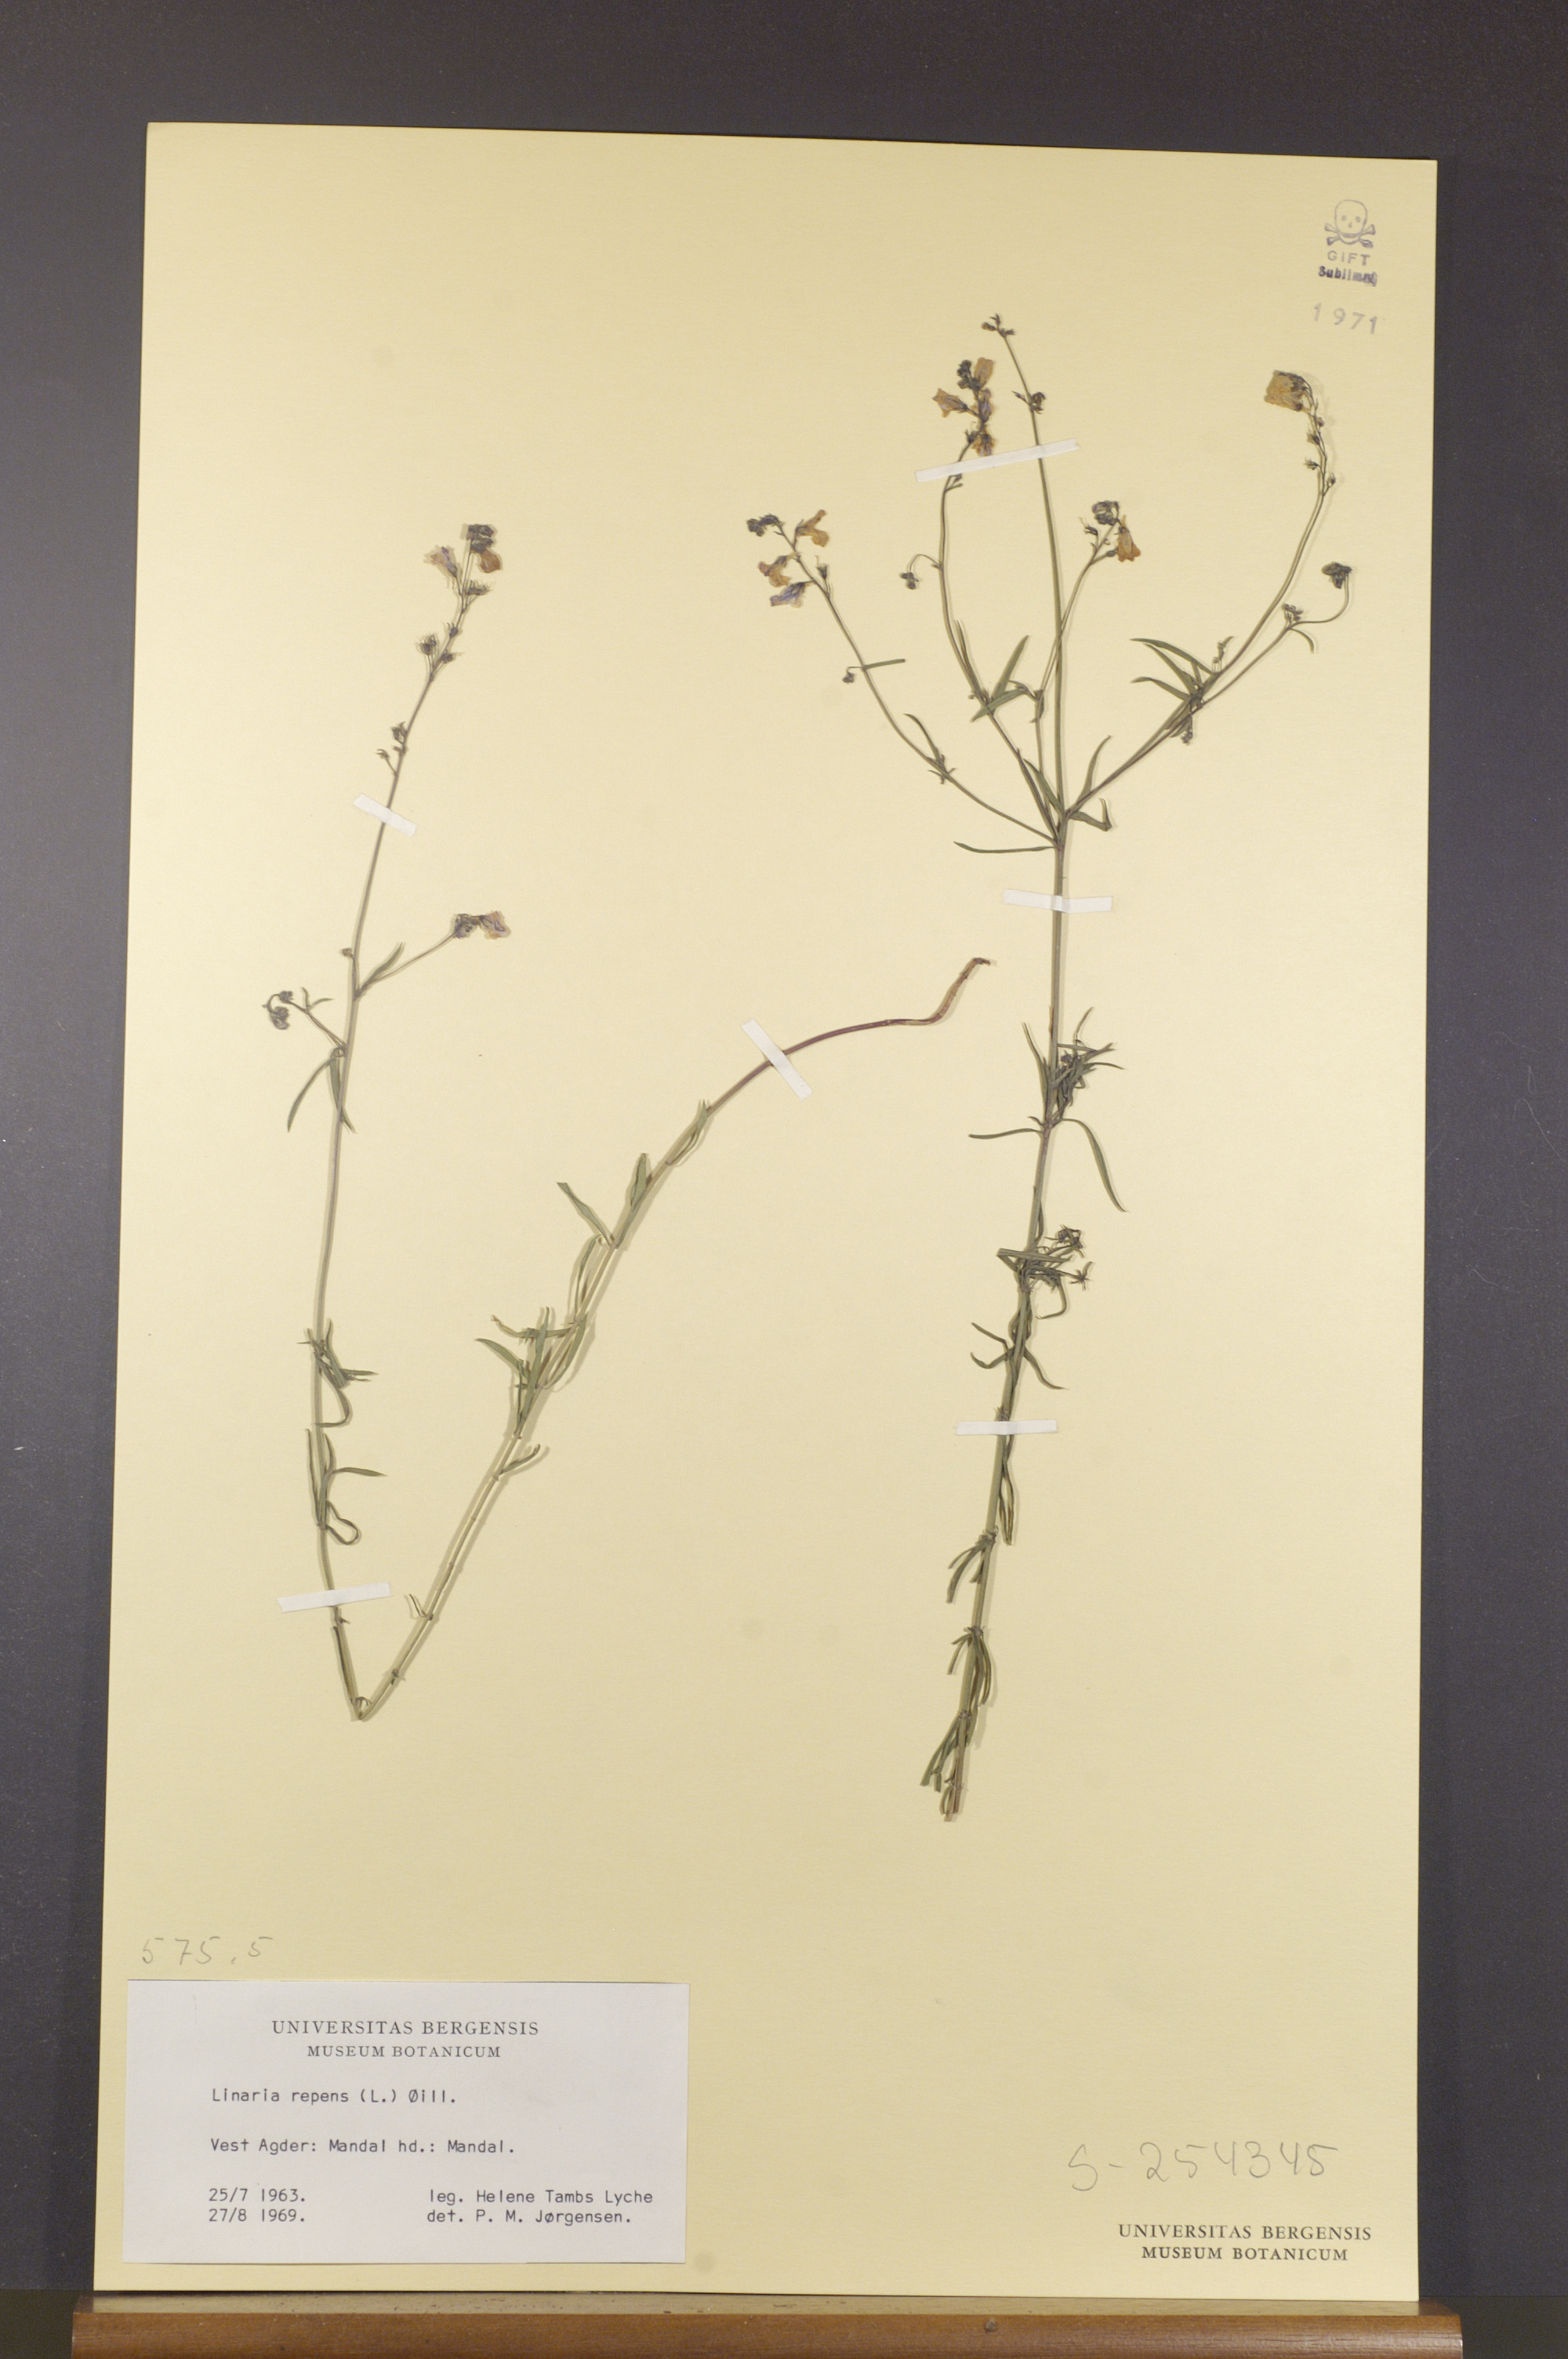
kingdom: Plantae
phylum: Tracheophyta
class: Magnoliopsida
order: Lamiales
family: Plantaginaceae
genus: Linaria
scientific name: Linaria repens
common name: Pale toadflax
